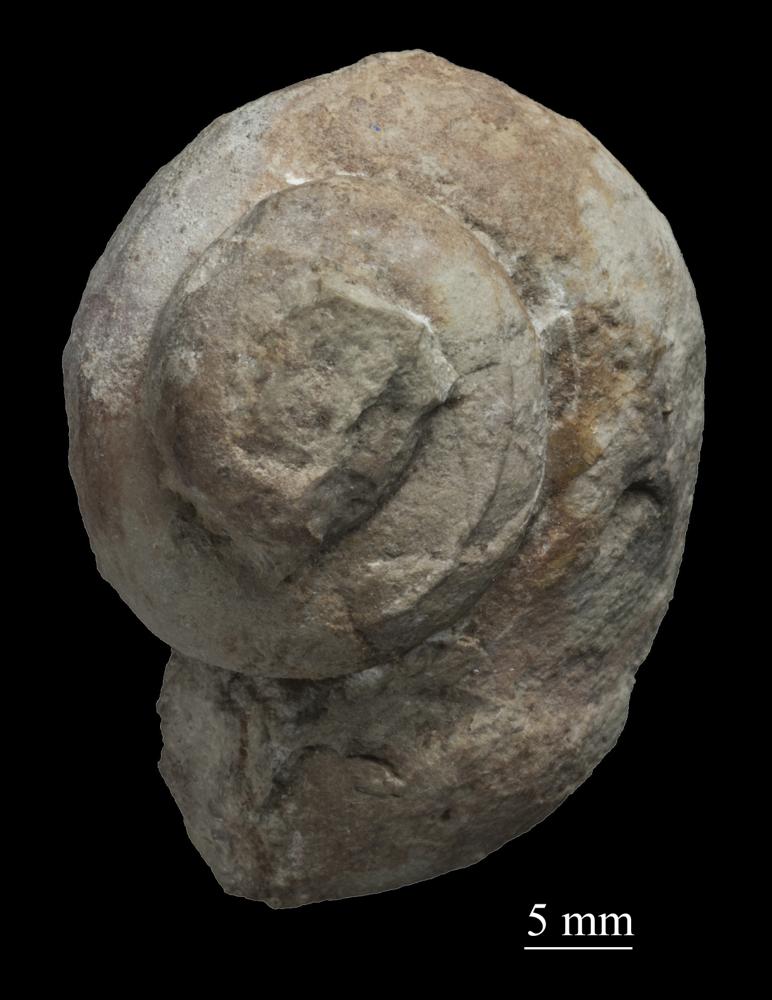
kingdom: Animalia
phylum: Mollusca
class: Gastropoda
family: Holopeidae
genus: Holopea
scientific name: Holopea Turbo balticus
